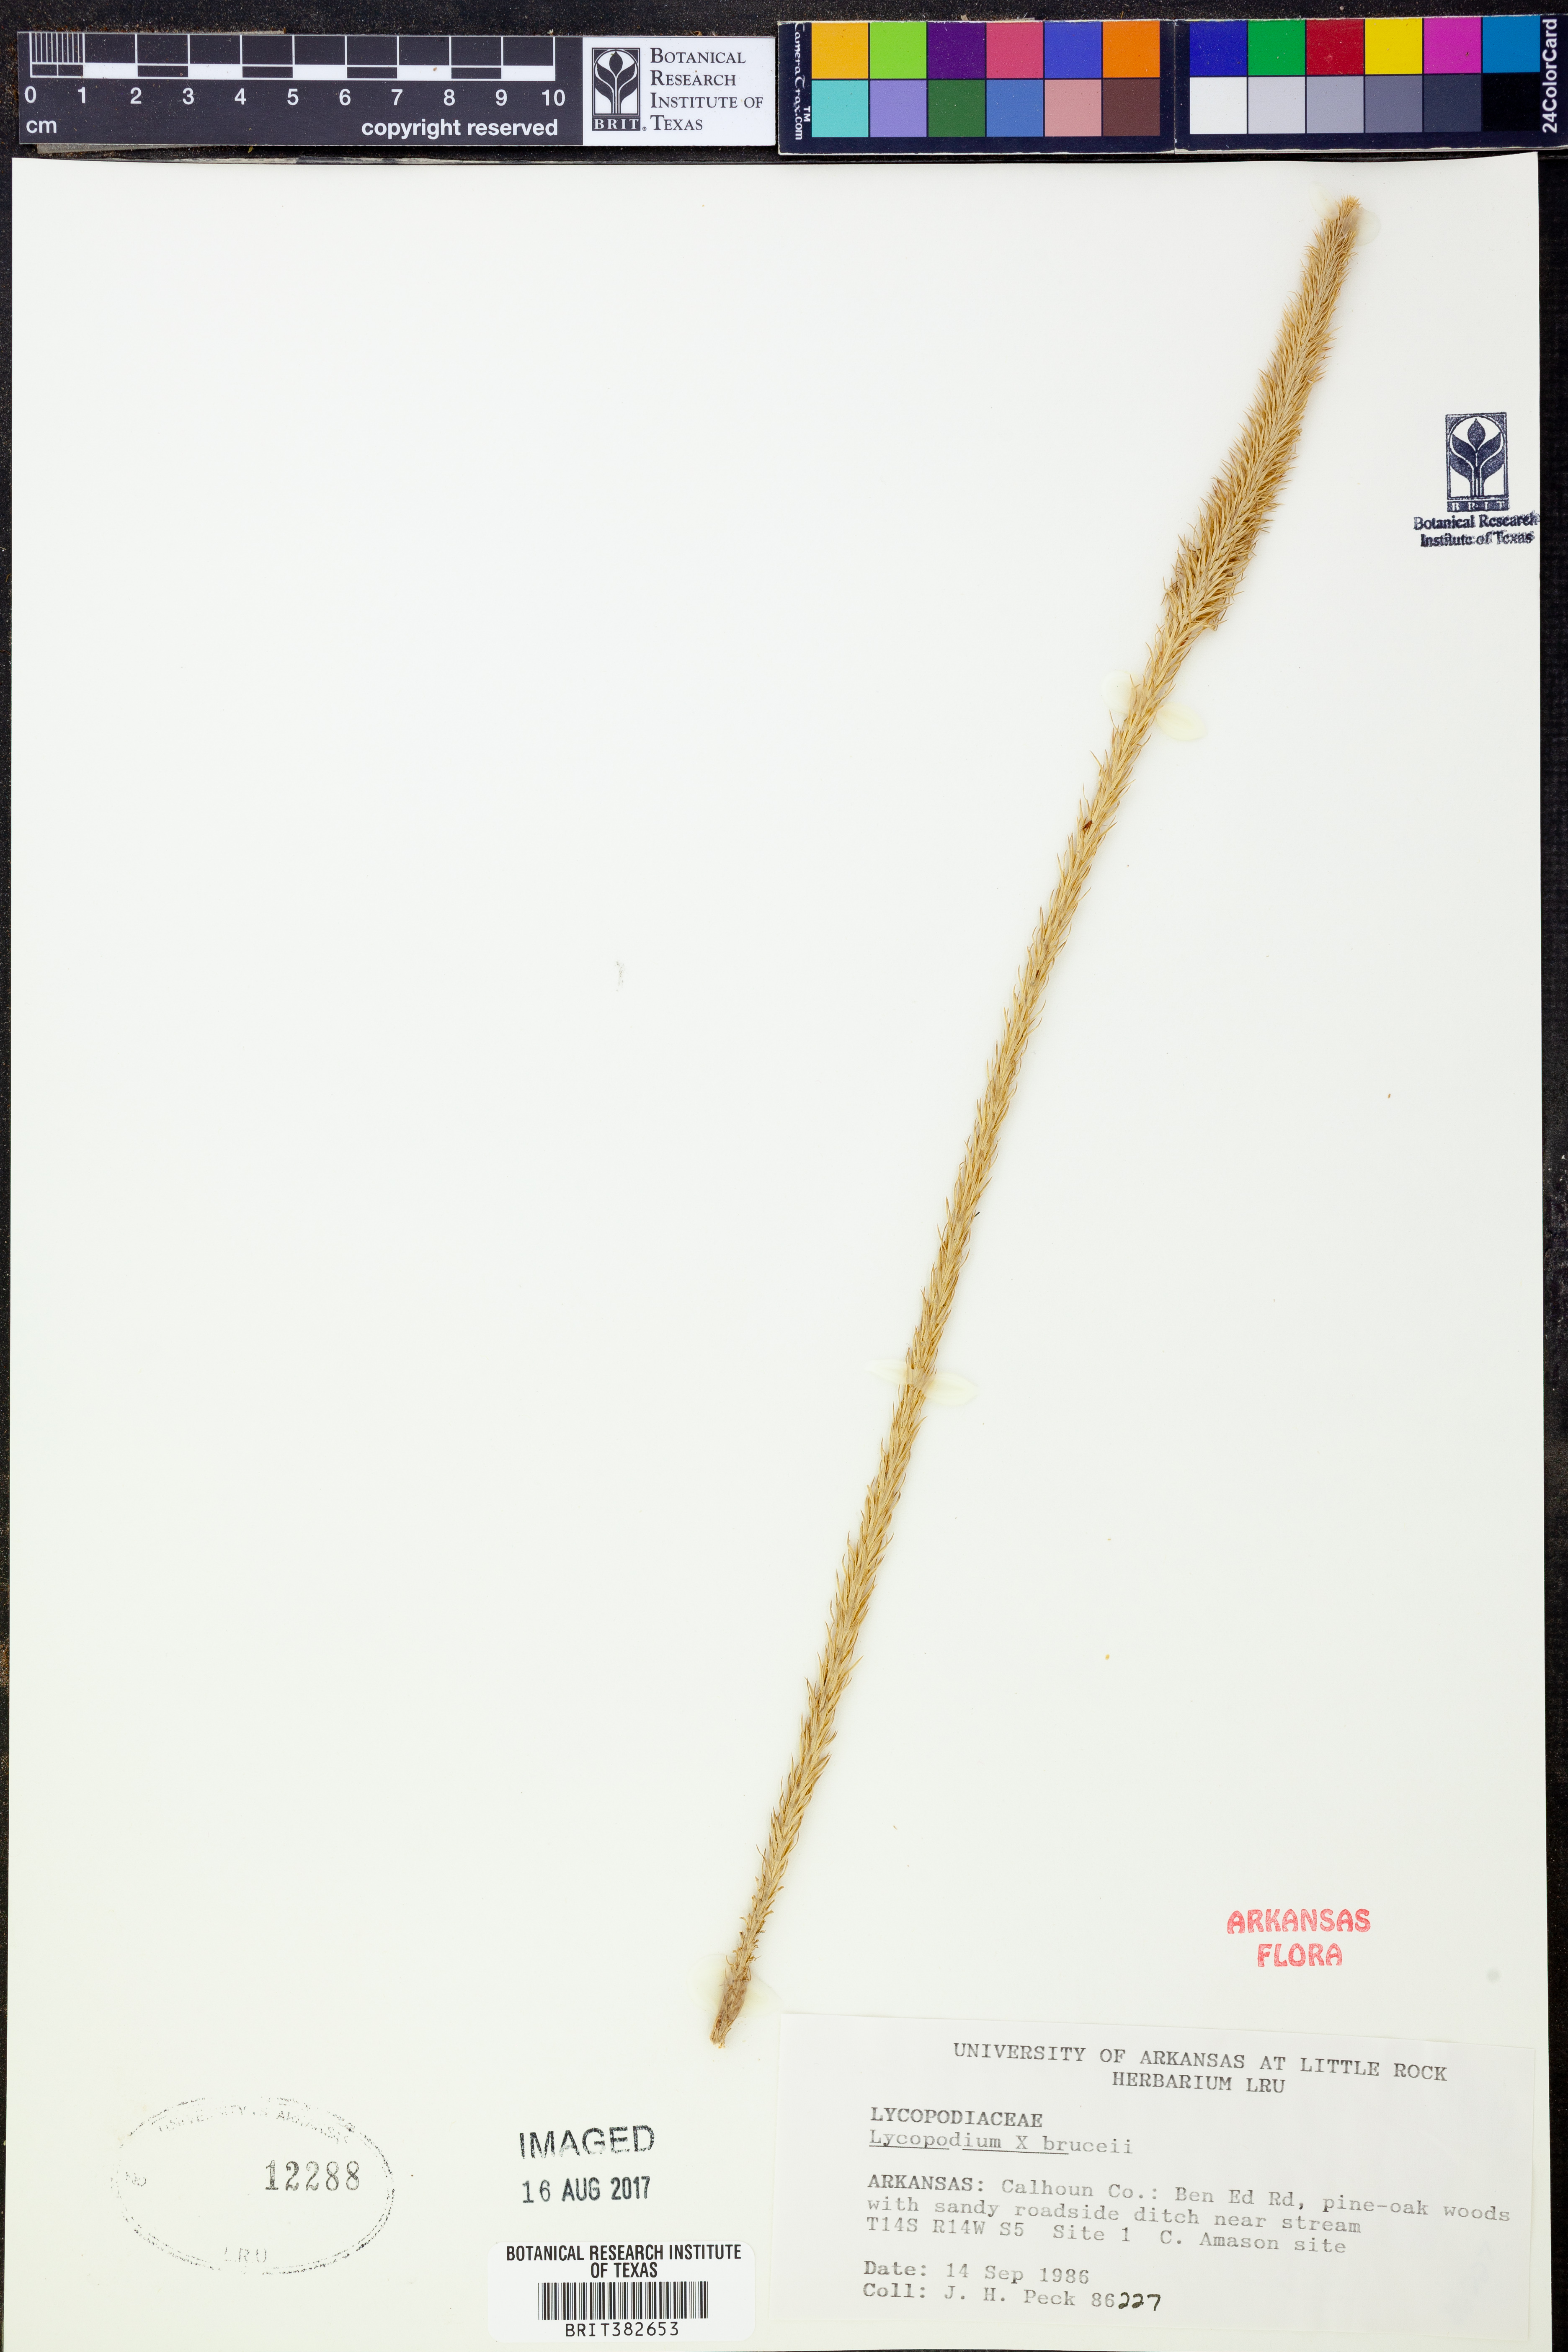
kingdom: Plantae
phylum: Tracheophyta
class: Lycopodiopsida
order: Lycopodiales
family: Lycopodiaceae
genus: Lycopodiella
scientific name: Lycopodiella brucei
